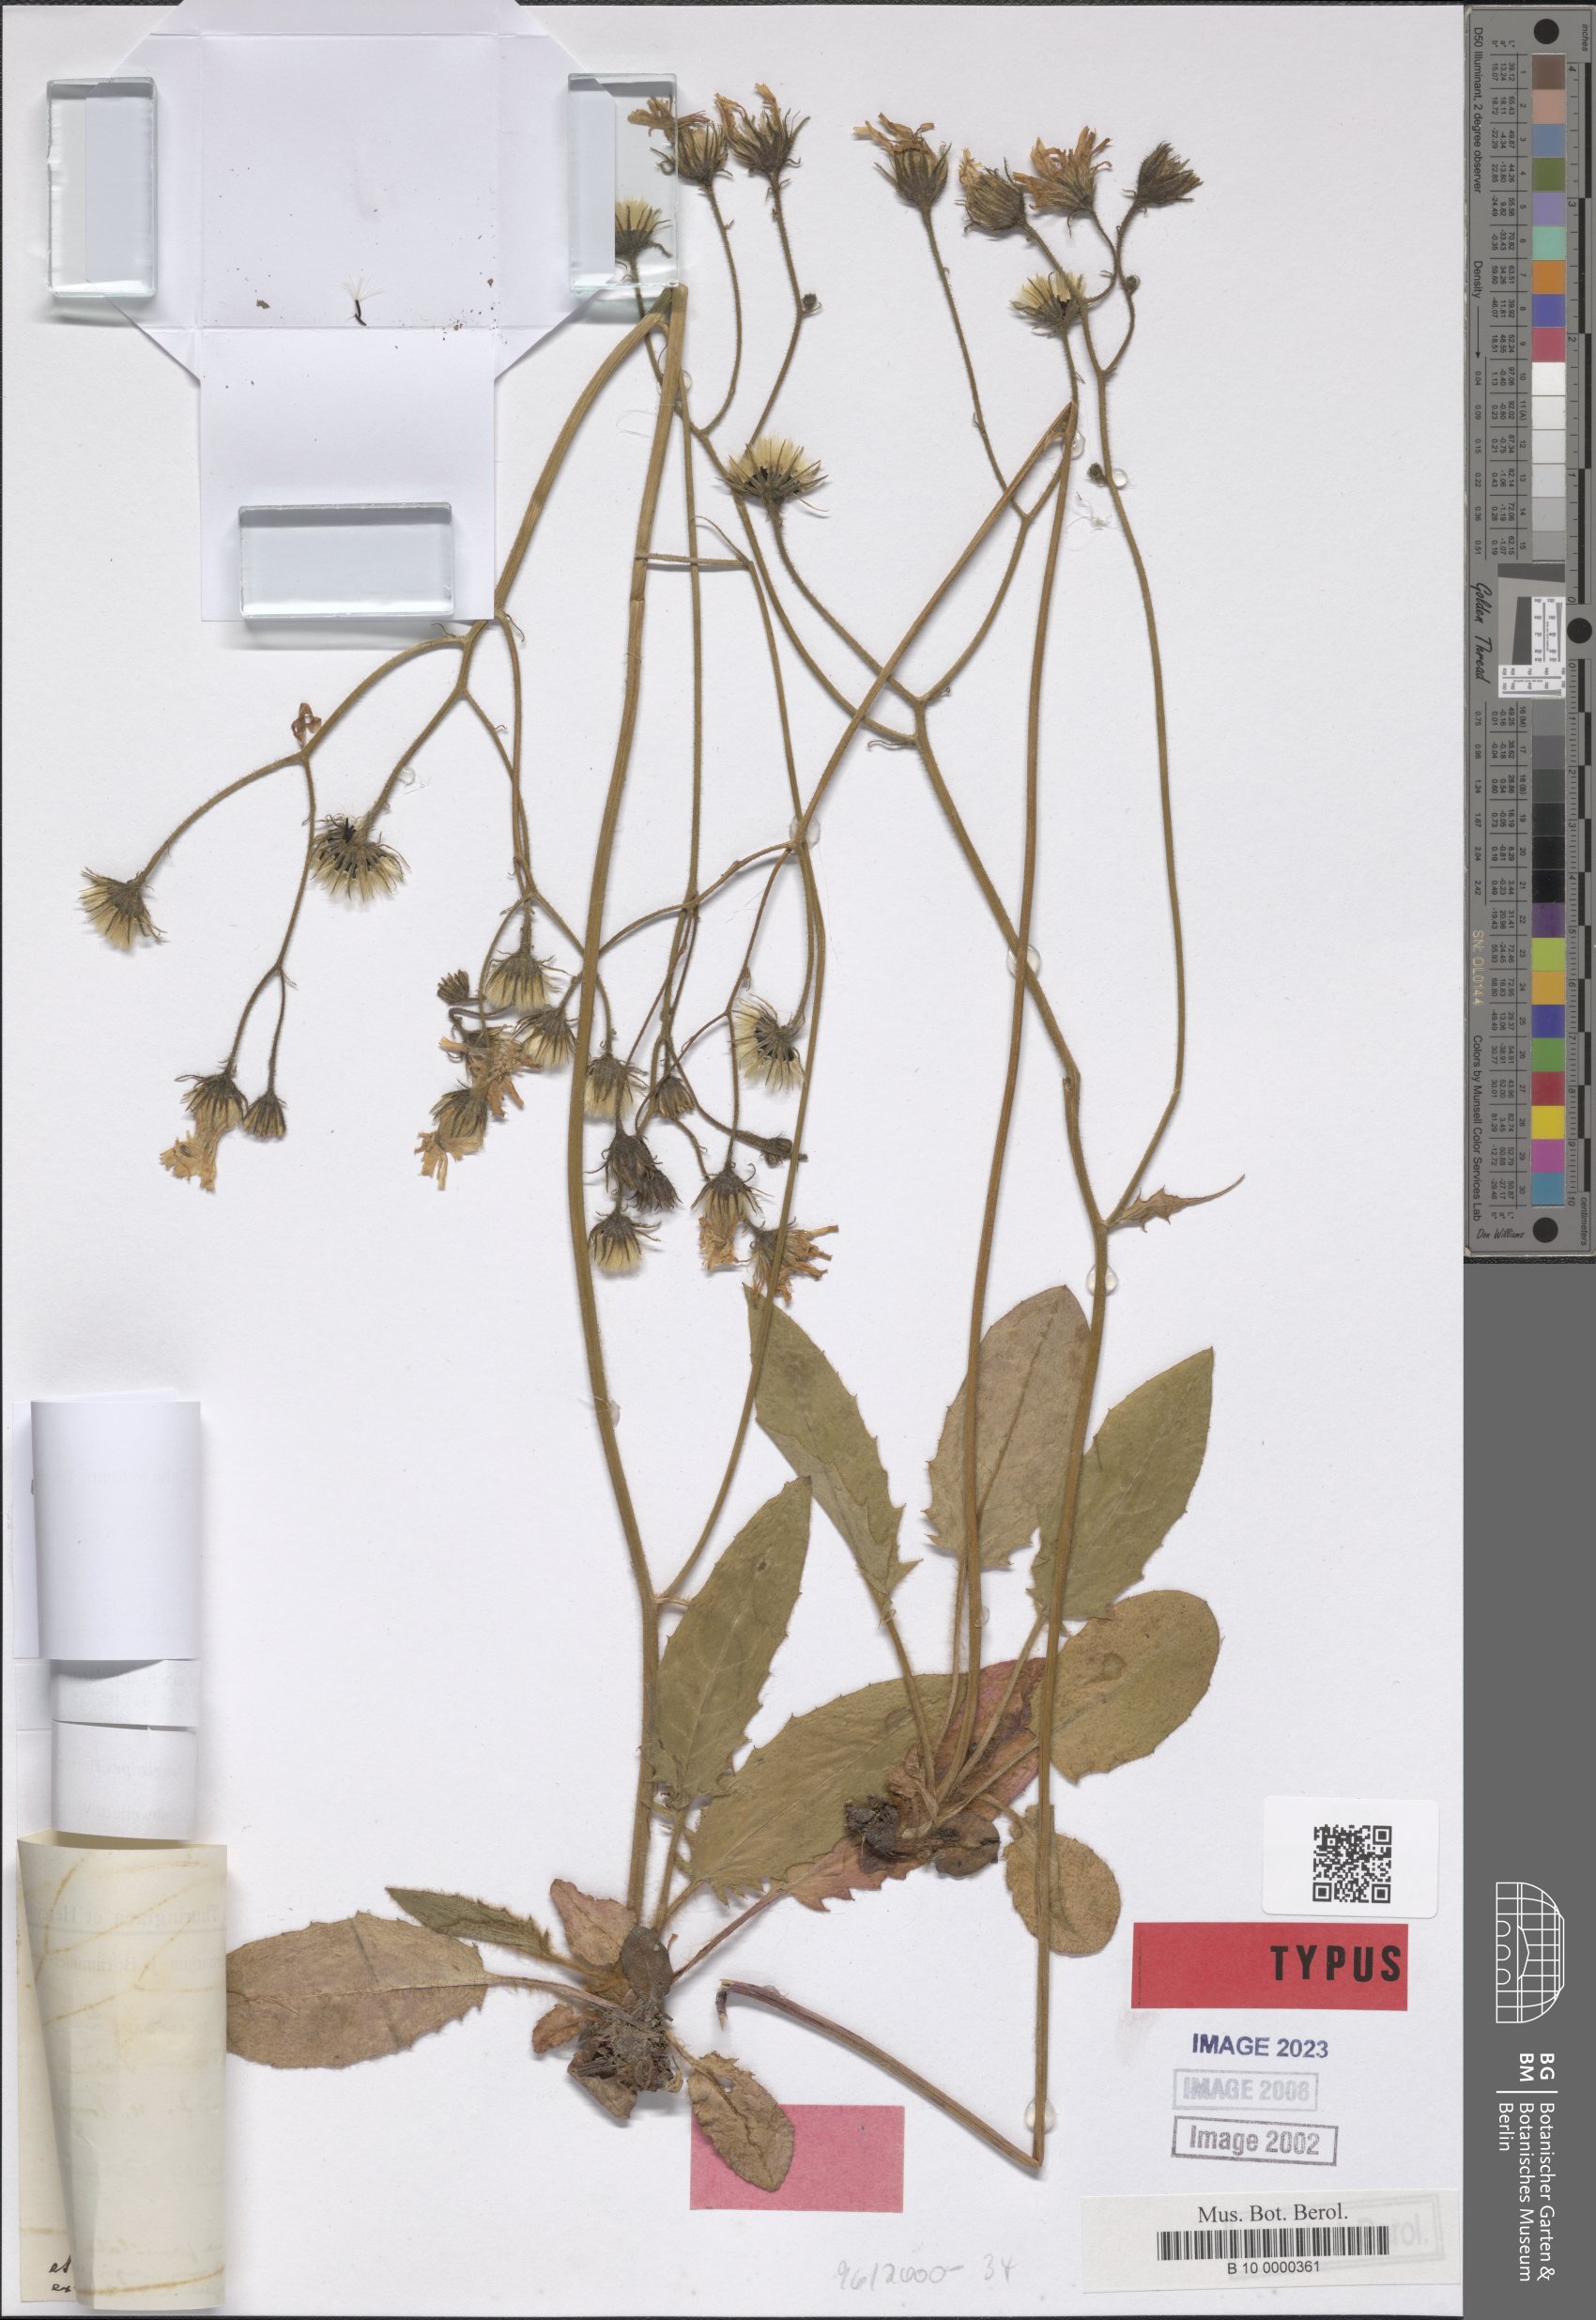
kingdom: Plantae
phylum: Tracheophyta
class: Magnoliopsida
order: Asterales
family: Asteraceae
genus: Hieracium
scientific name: Hieracium murorum
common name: Wall hawkweed
